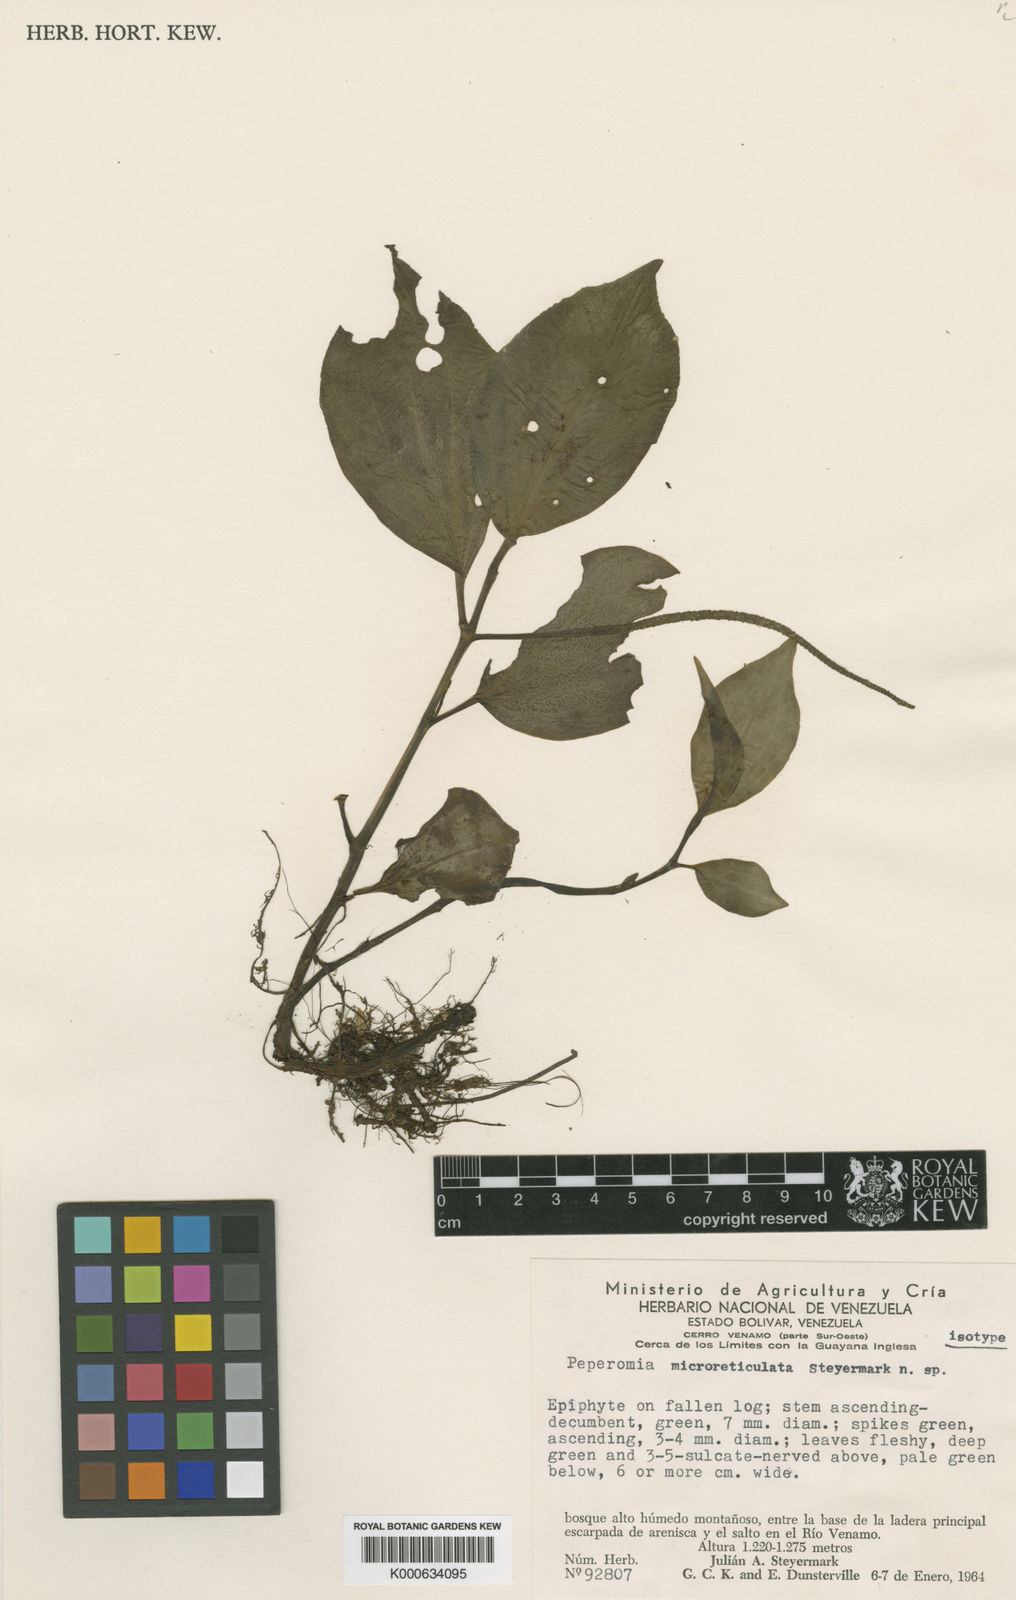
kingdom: Plantae
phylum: Tracheophyta
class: Magnoliopsida
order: Piperales
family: Piperaceae
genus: Peperomia
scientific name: Peperomia alata
